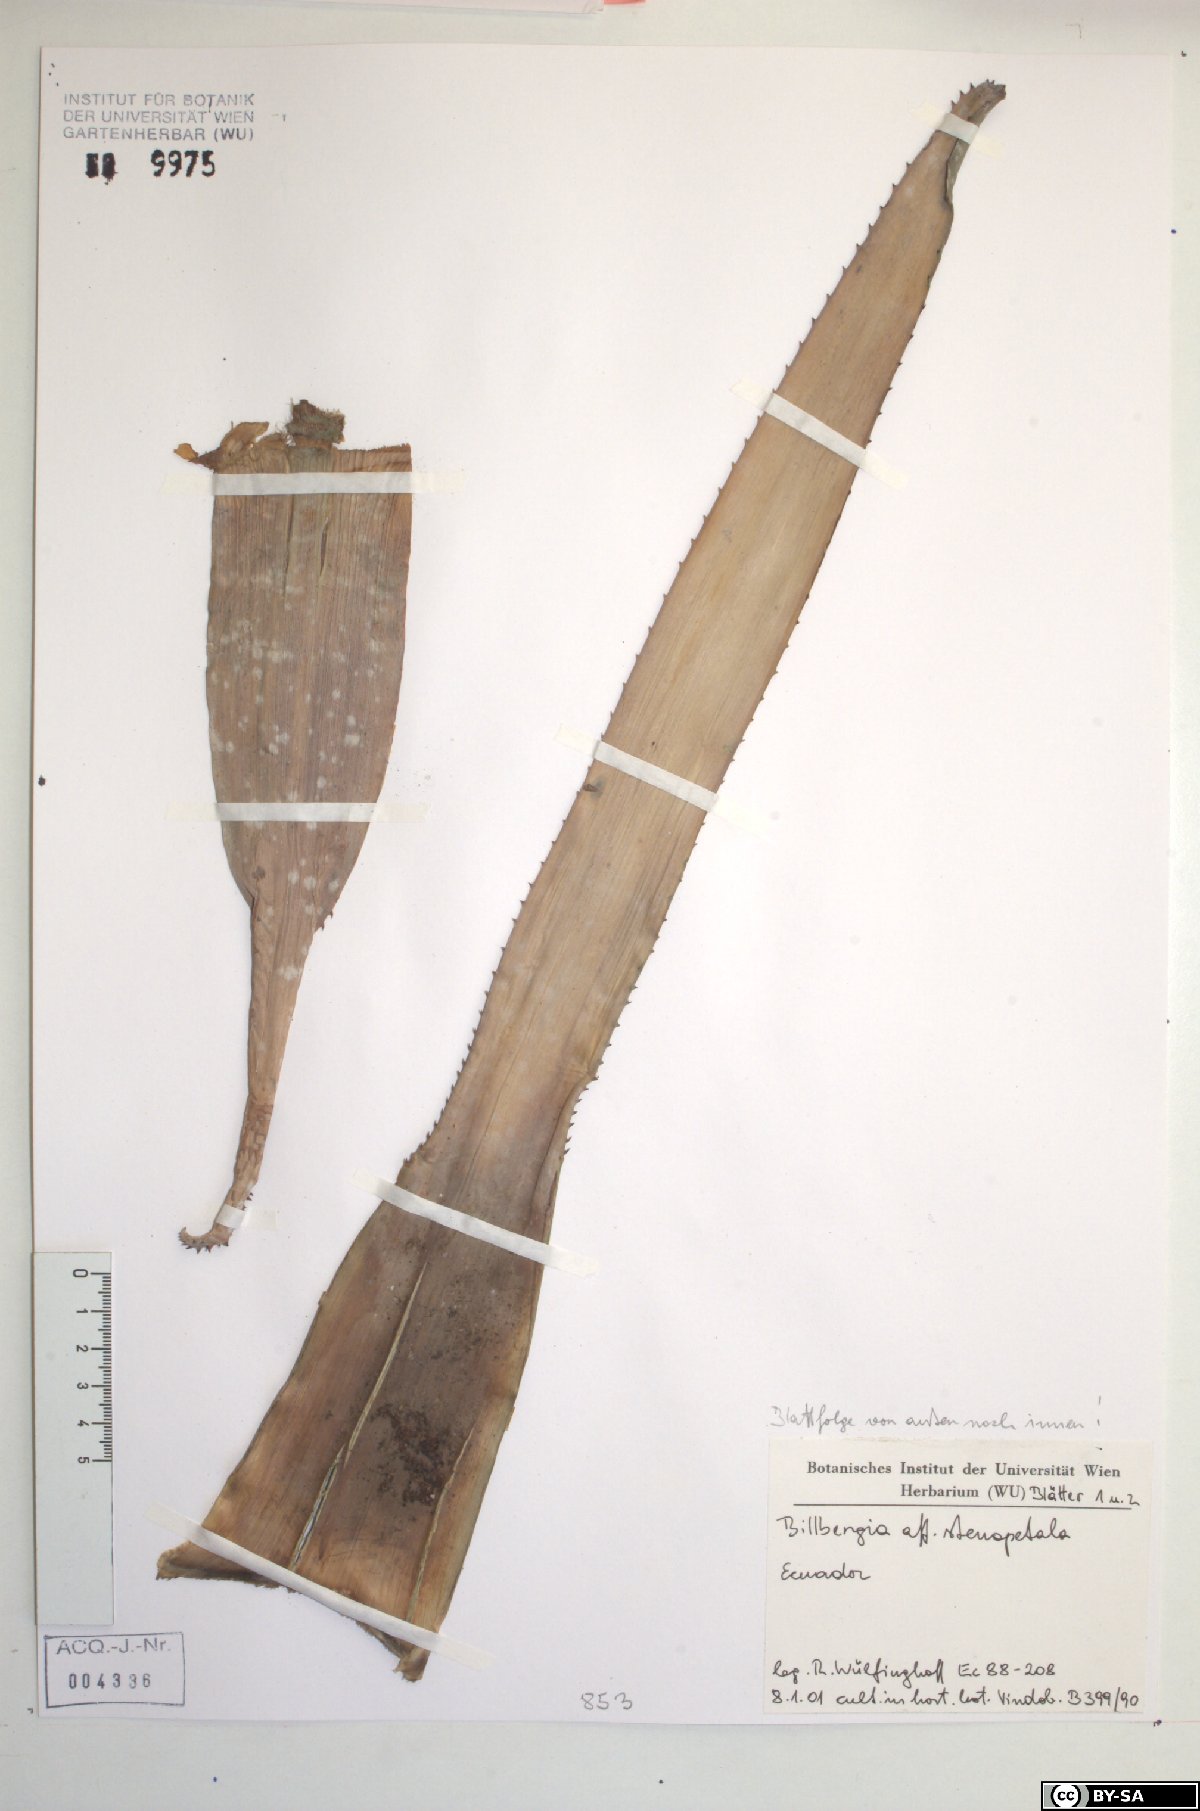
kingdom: Plantae
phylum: Tracheophyta
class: Liliopsida
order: Poales
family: Bromeliaceae
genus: Billbergia
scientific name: Billbergia stenopetala
